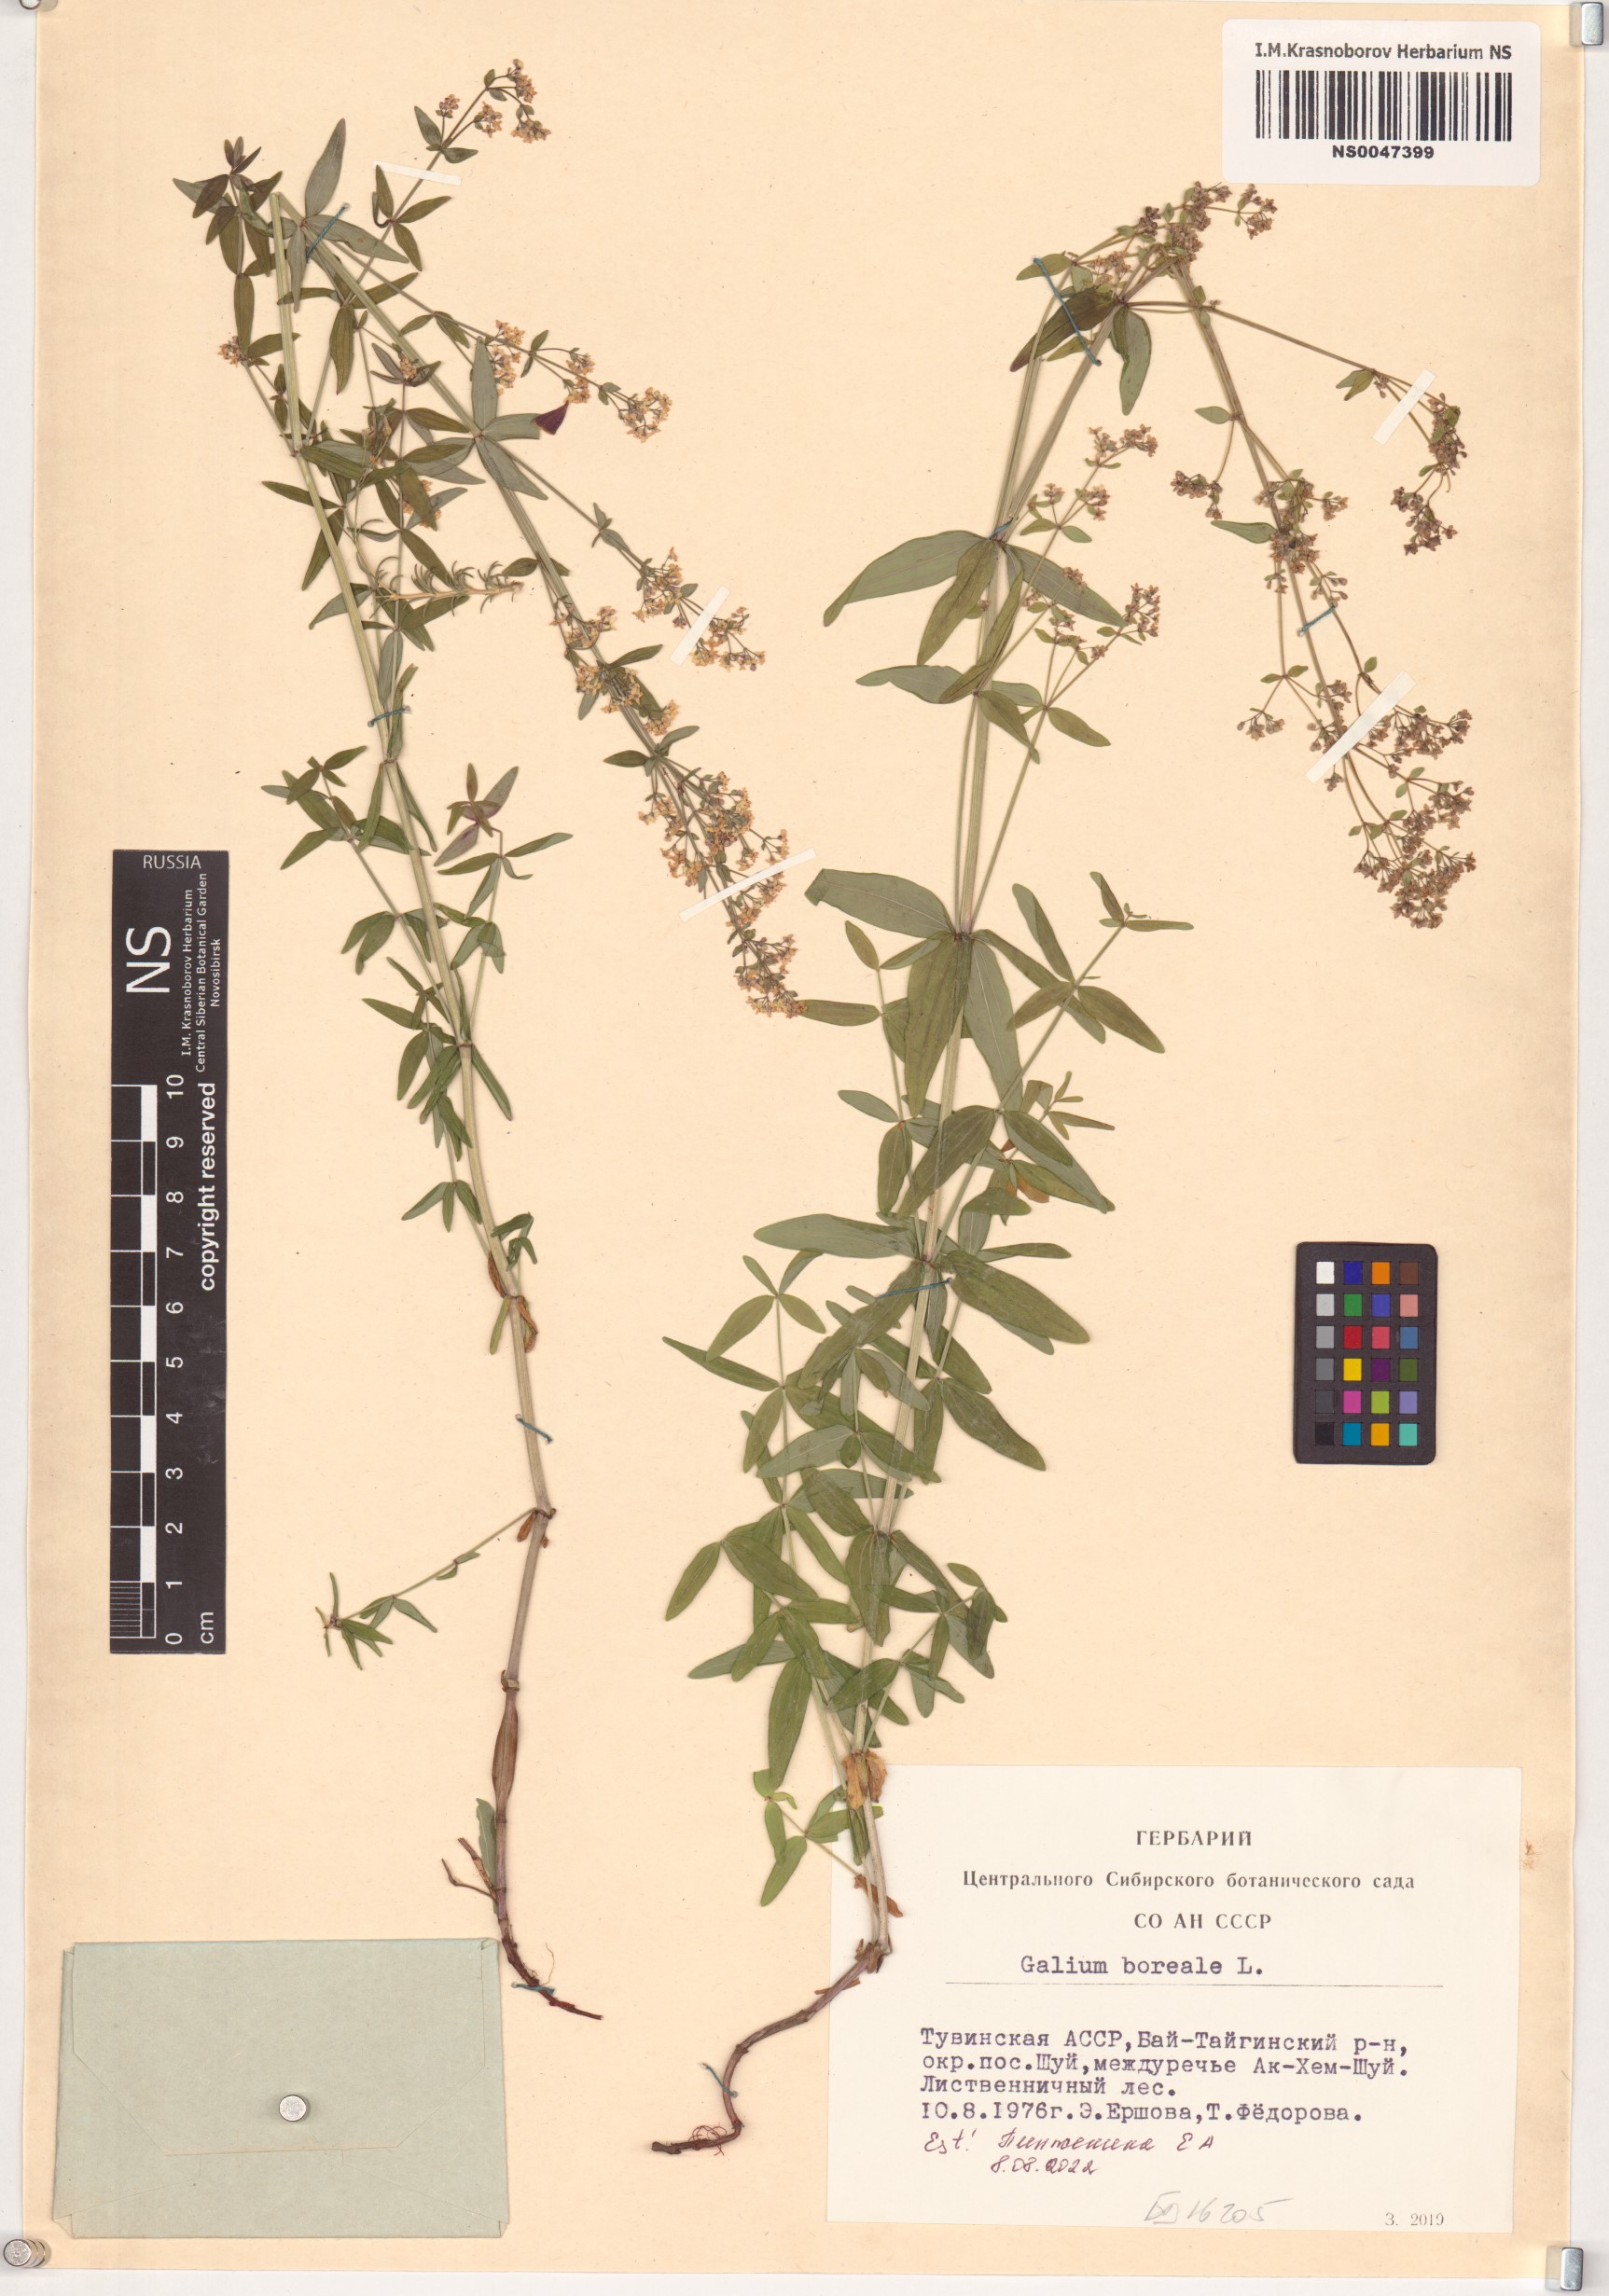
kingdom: Plantae
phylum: Tracheophyta
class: Magnoliopsida
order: Gentianales
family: Rubiaceae
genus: Galium
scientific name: Galium boreale
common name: Northern bedstraw
